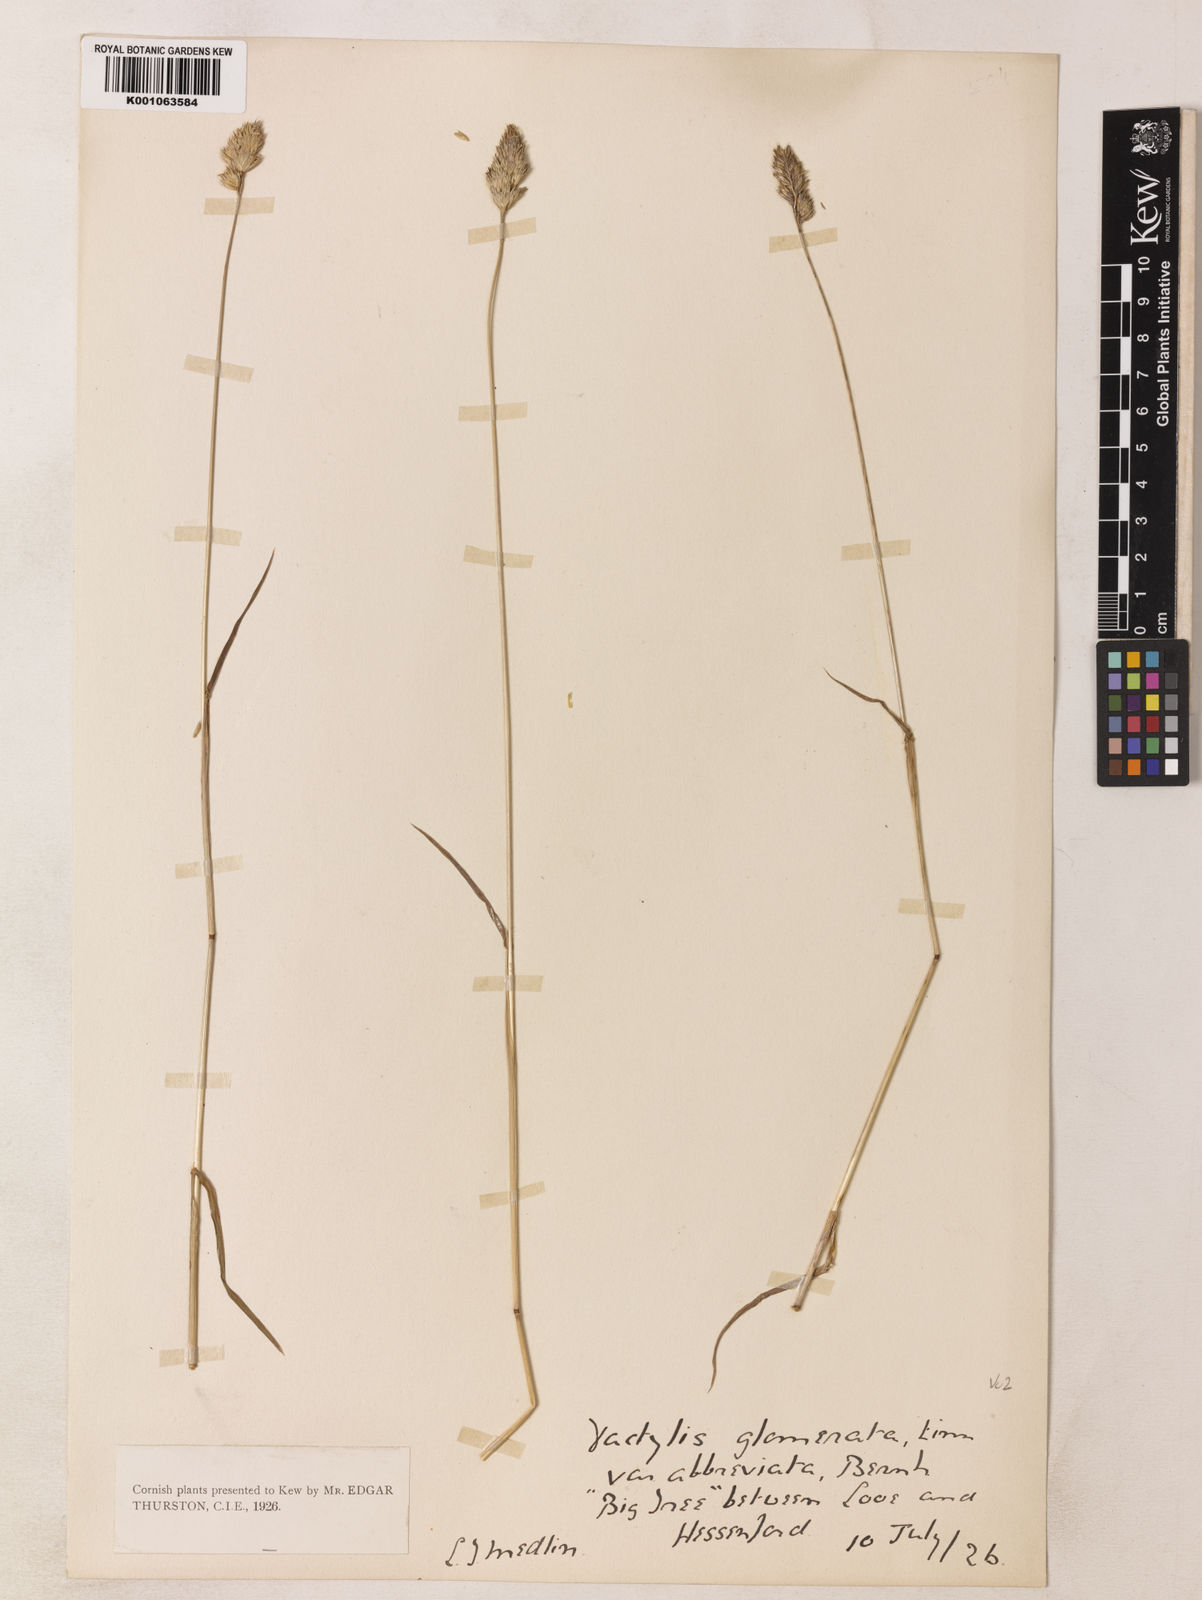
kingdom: Plantae
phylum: Tracheophyta
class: Liliopsida
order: Poales
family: Poaceae
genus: Dactylis
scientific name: Dactylis glomerata
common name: Orchardgrass
